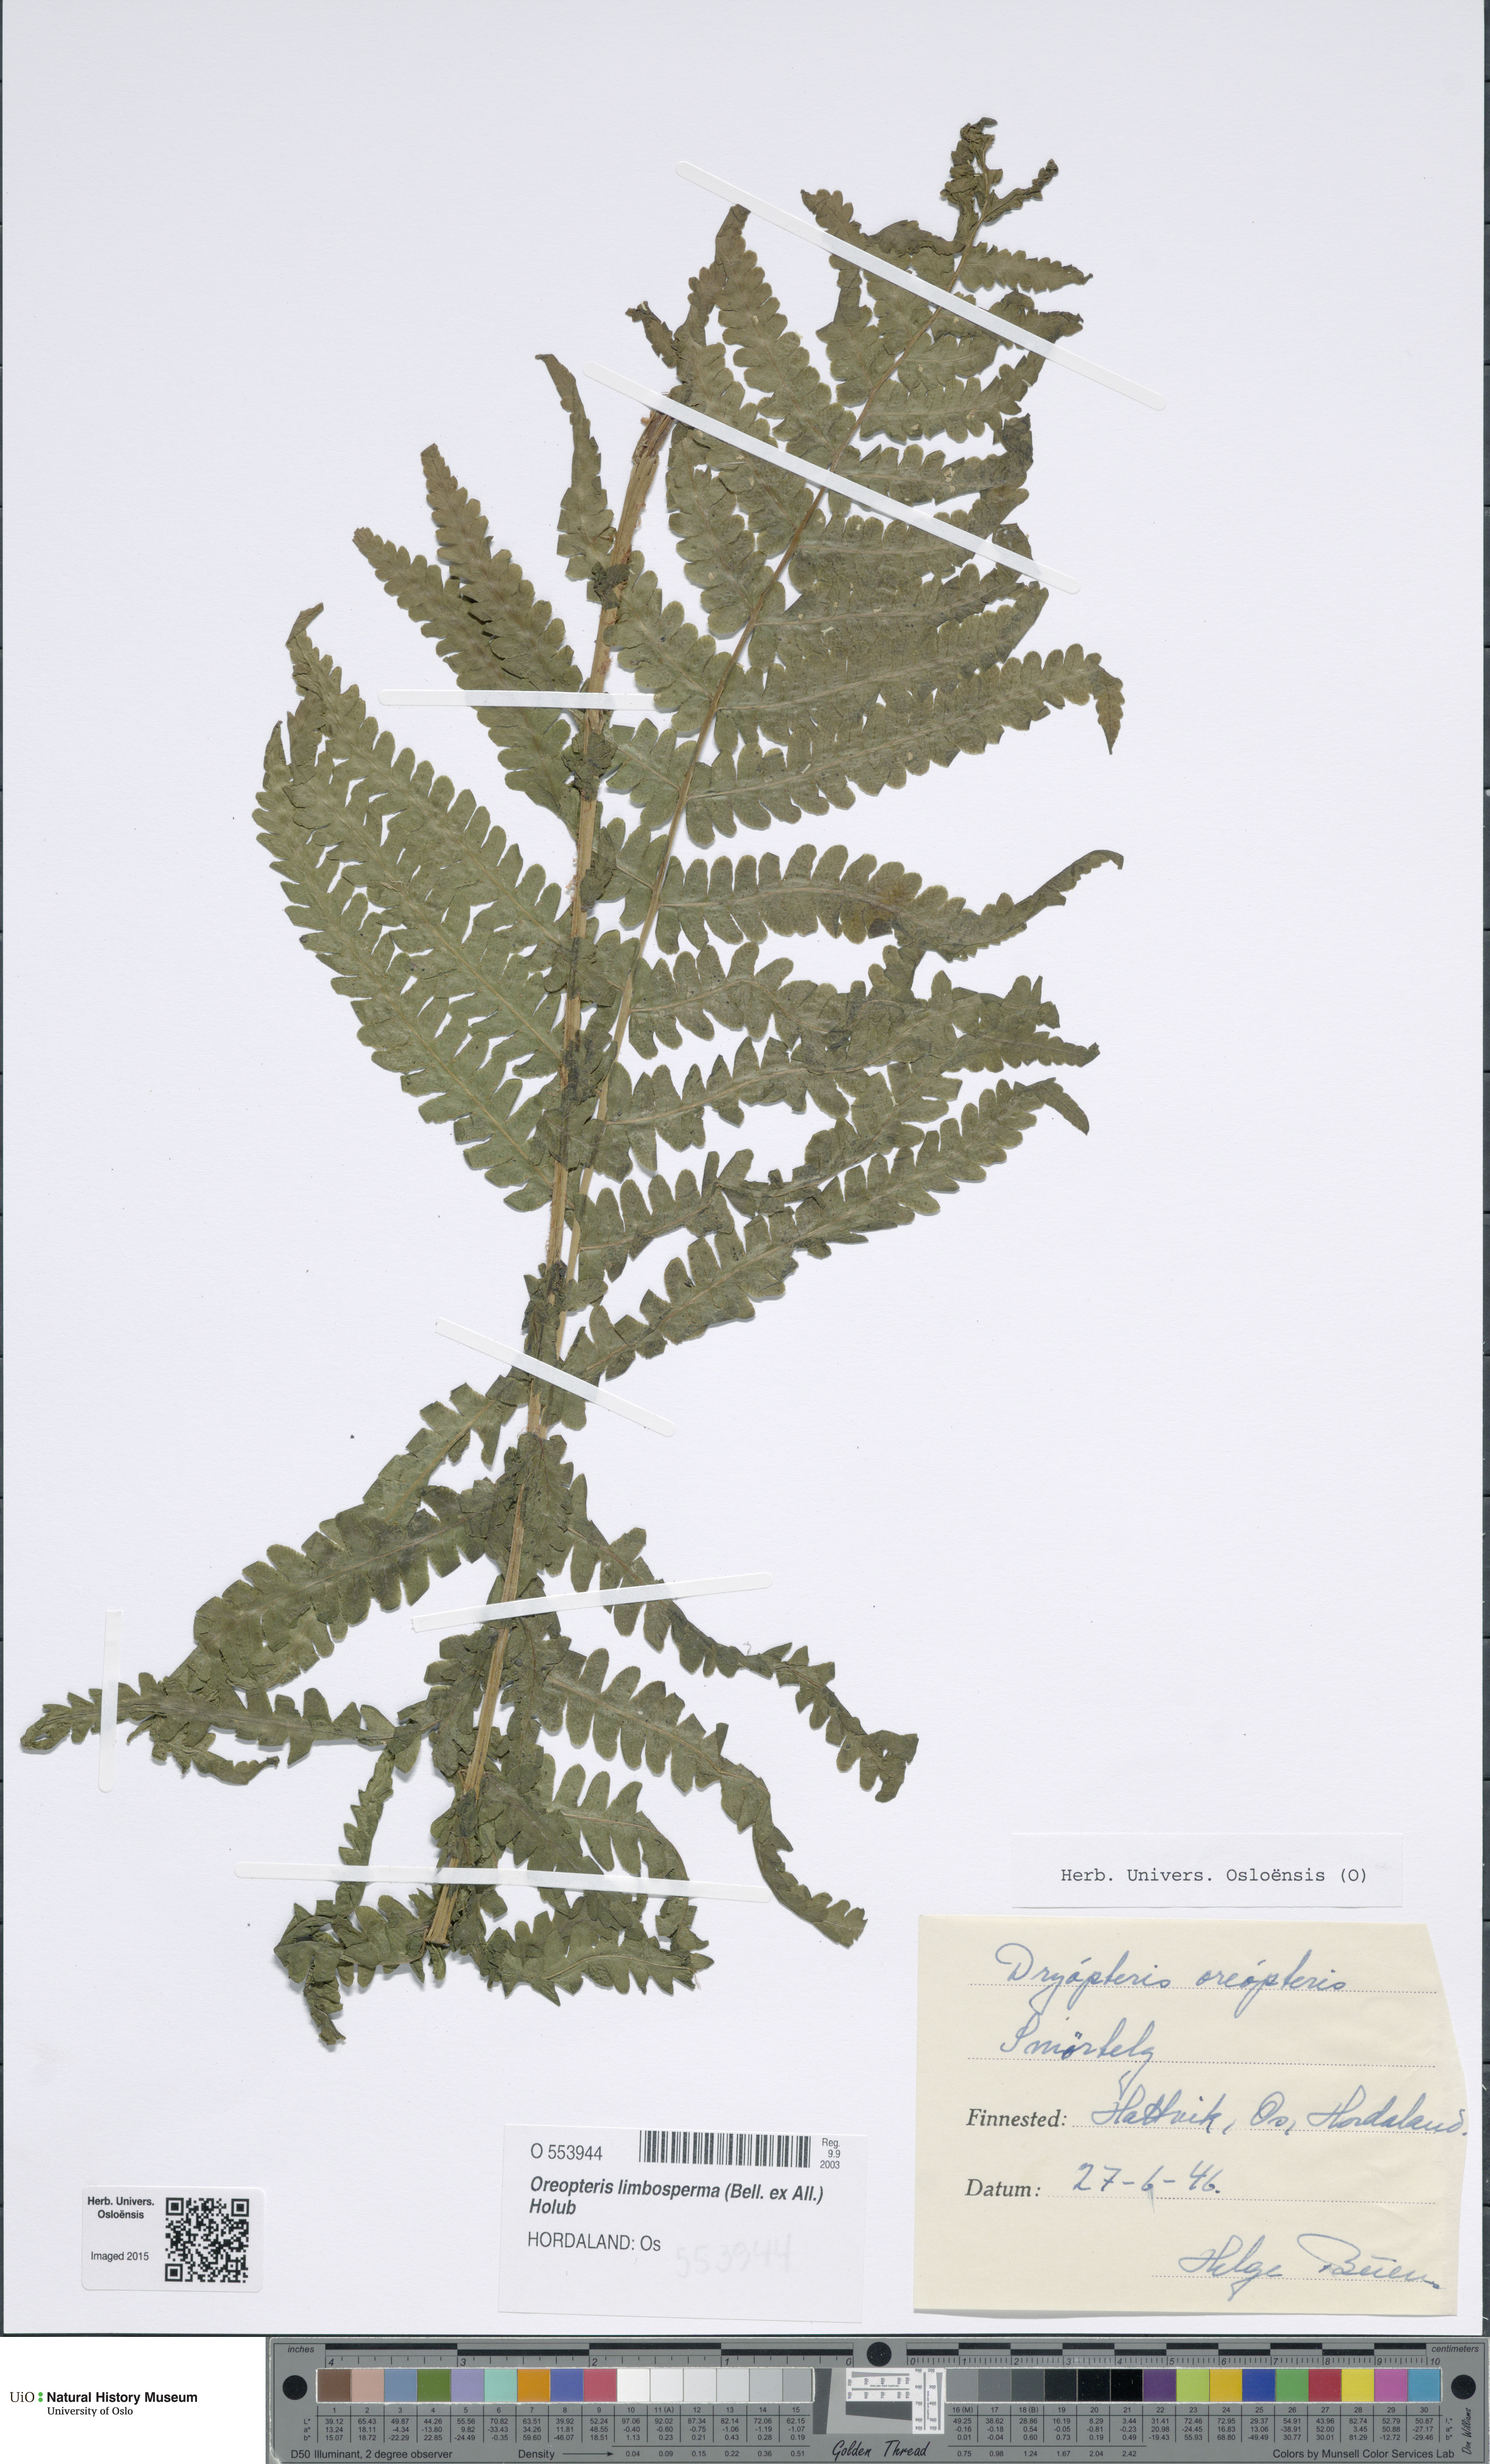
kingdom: Plantae
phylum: Tracheophyta
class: Polypodiopsida
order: Polypodiales
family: Thelypteridaceae
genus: Oreopteris
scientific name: Oreopteris limbosperma
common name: Lemon-scented fern
